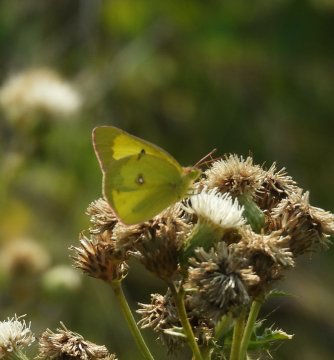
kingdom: Animalia
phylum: Arthropoda
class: Insecta
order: Lepidoptera
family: Pieridae
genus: Colias
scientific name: Colias philodice
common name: Clouded Sulphur
